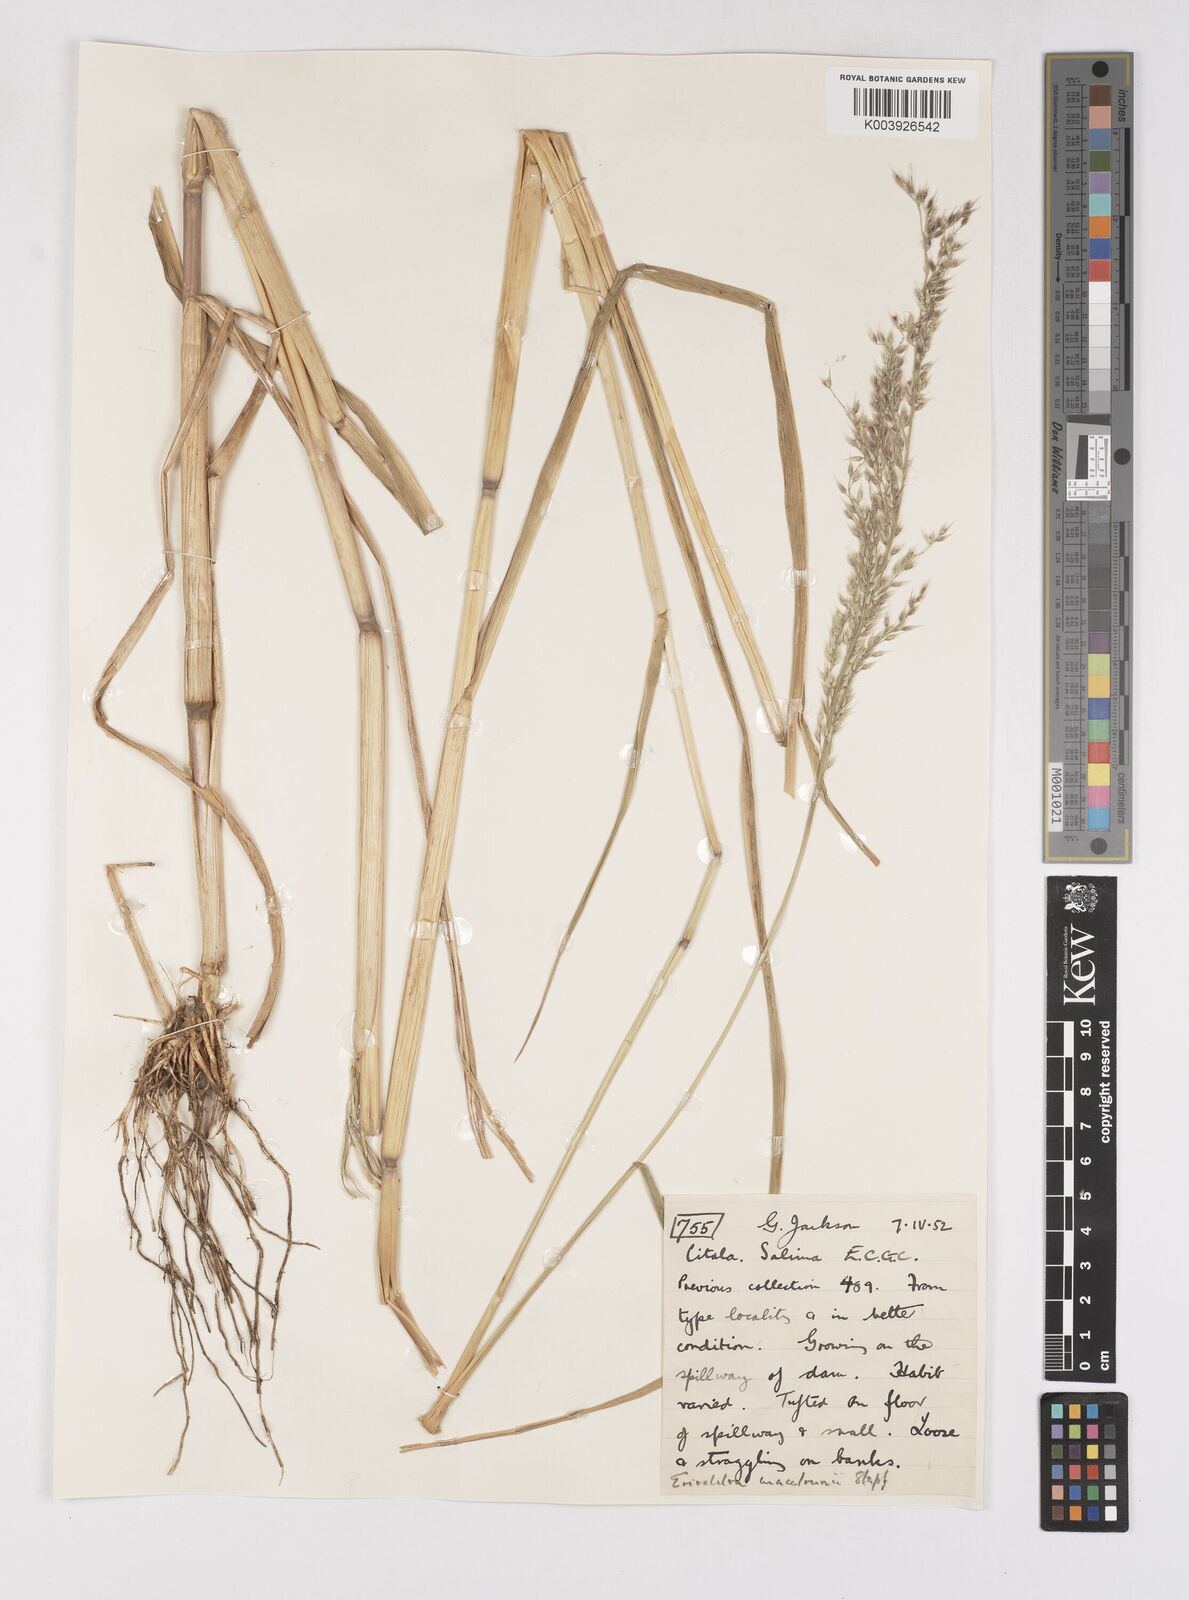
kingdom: Plantae
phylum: Tracheophyta
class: Liliopsida
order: Poales
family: Poaceae
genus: Eriochloa
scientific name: Eriochloa macclounii
